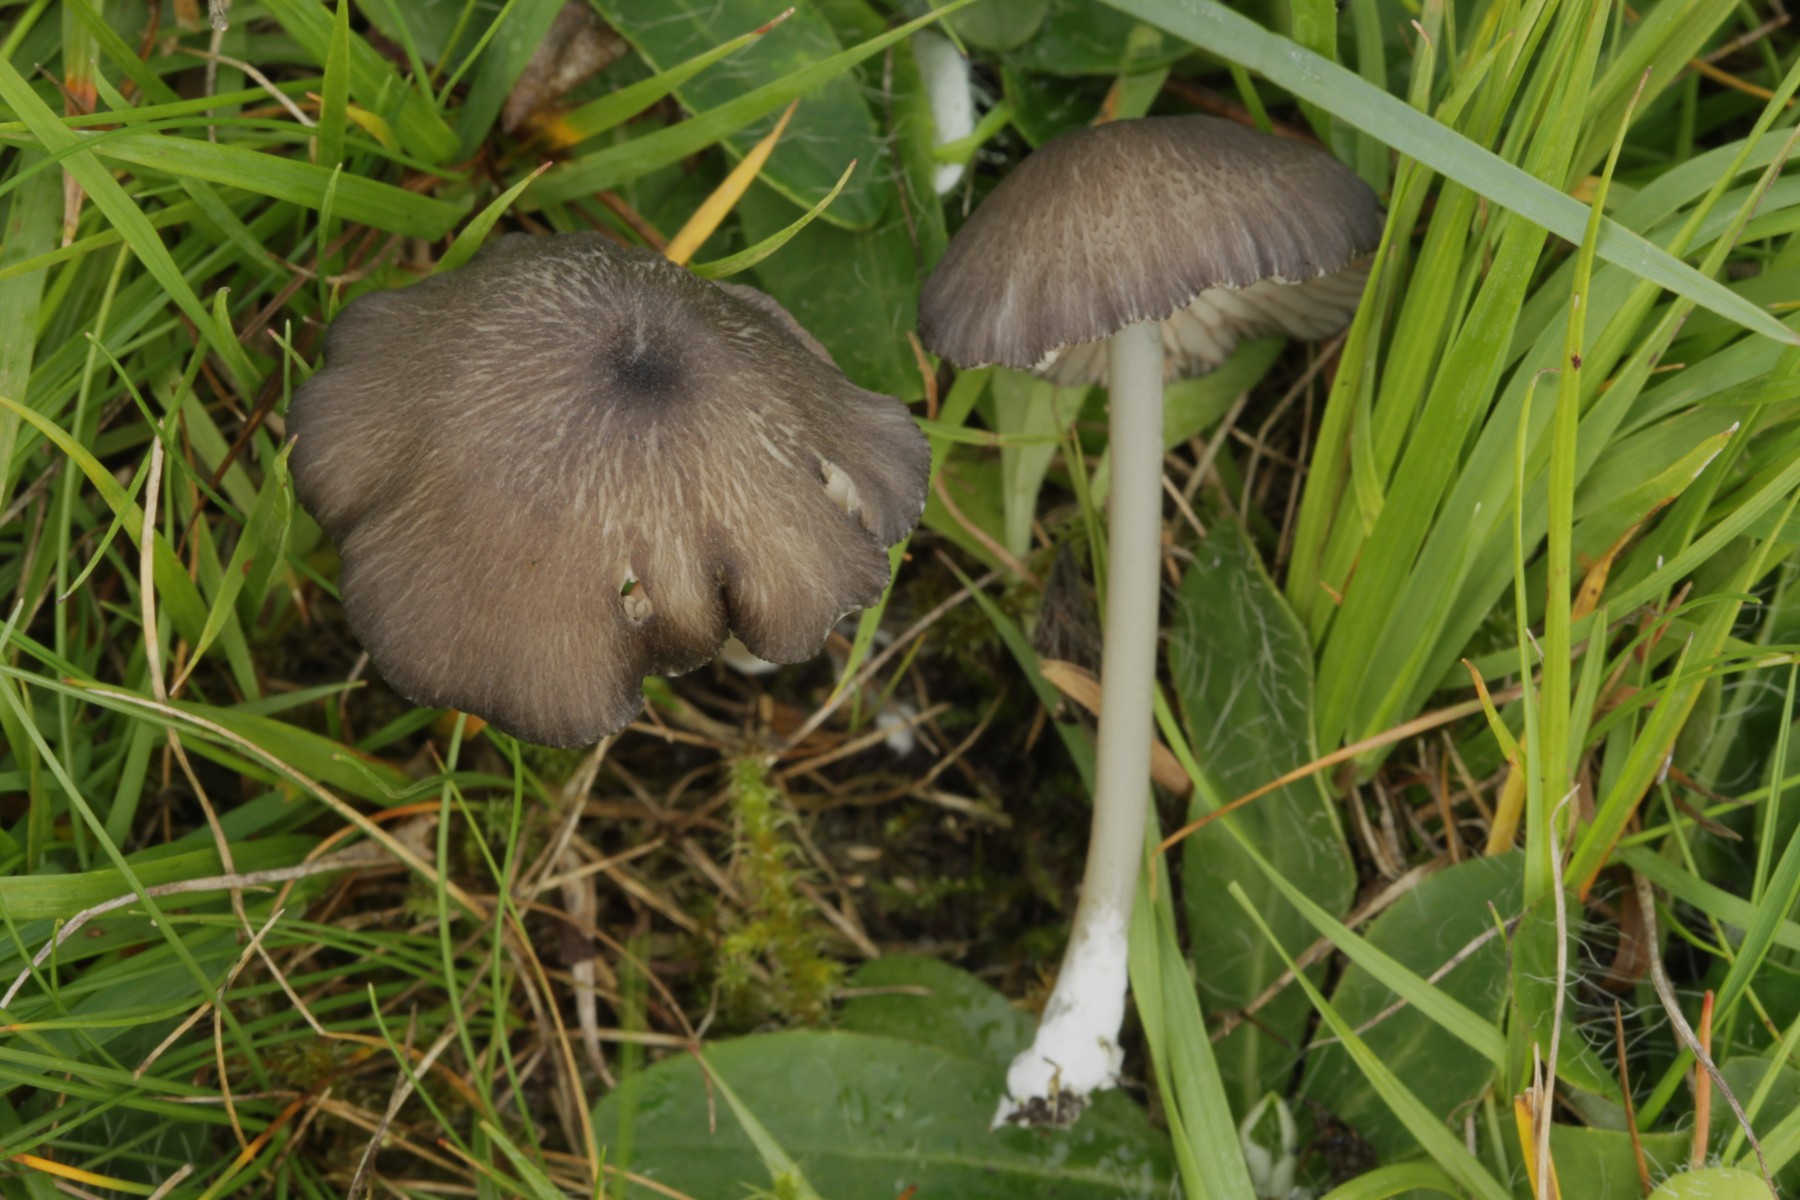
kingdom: Fungi
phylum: Basidiomycota
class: Agaricomycetes
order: Agaricales
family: Entolomataceae
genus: Entoloma
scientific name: Entoloma caesiocinctum
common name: Blue-girdled pinkgill
